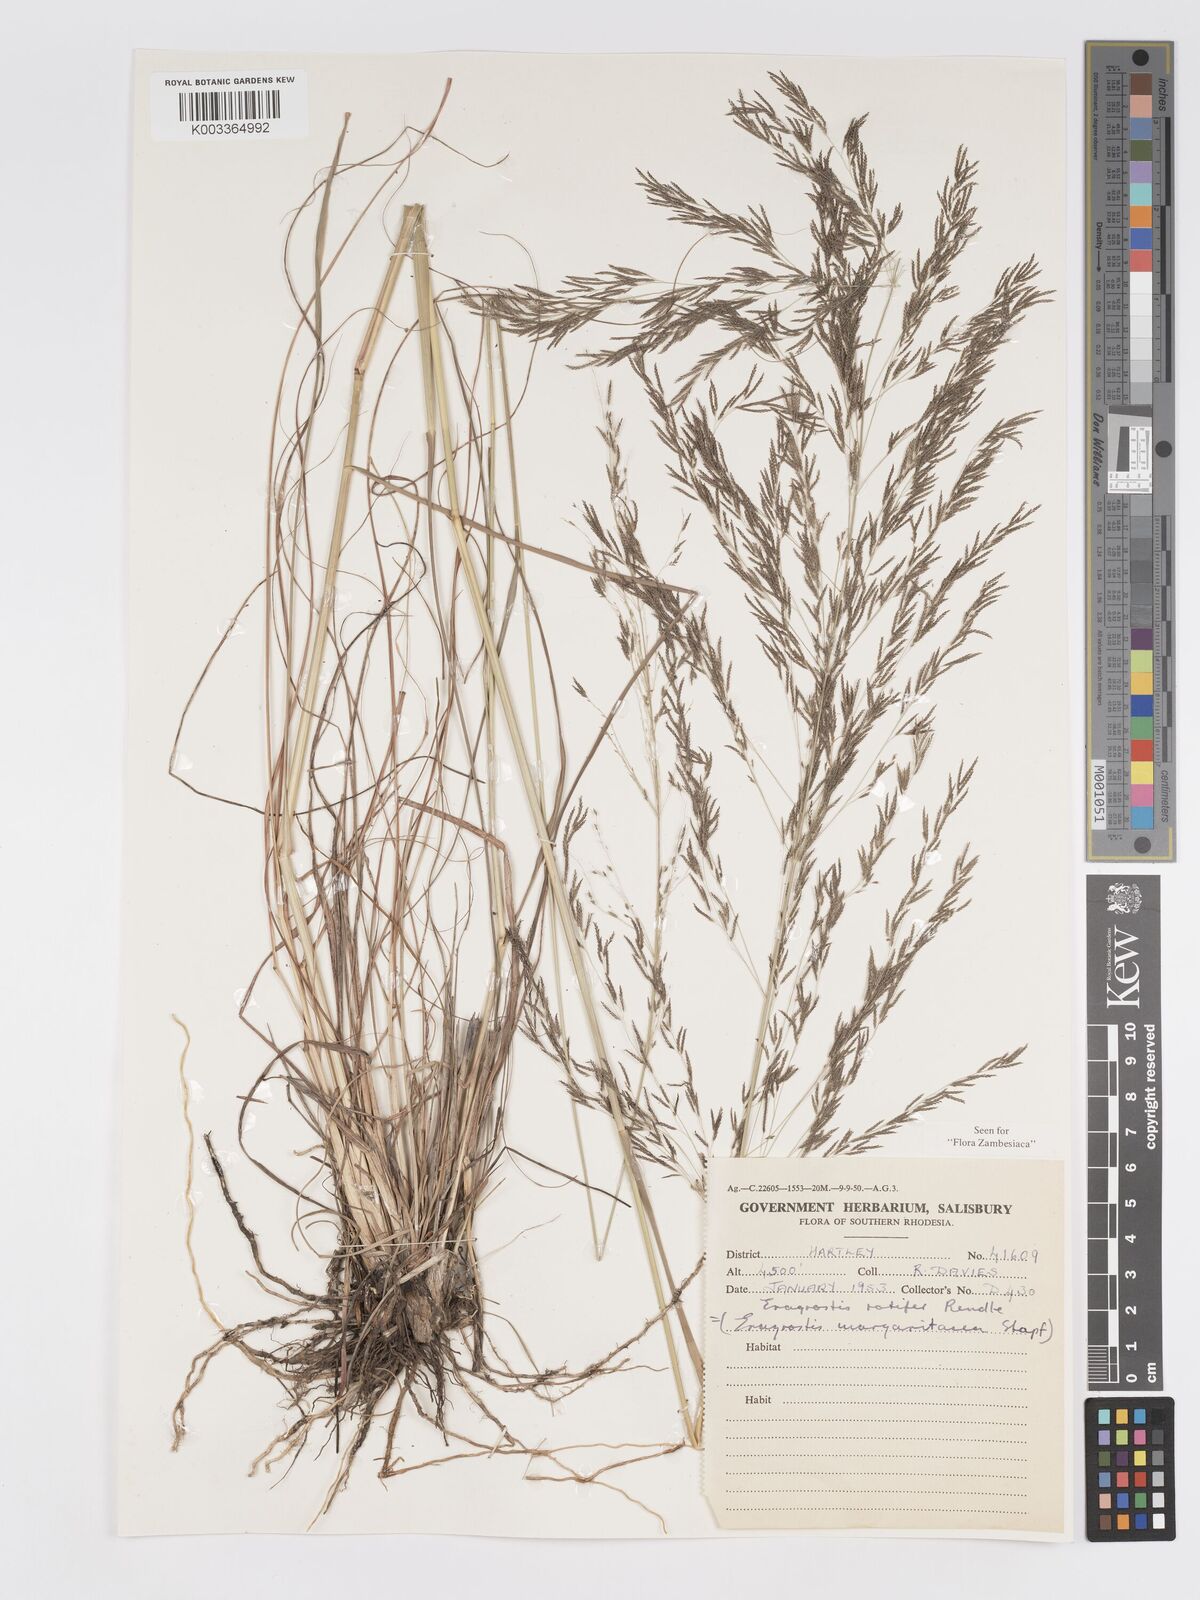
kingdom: Plantae
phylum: Tracheophyta
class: Liliopsida
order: Poales
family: Poaceae
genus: Eragrostis
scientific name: Eragrostis rotifer
